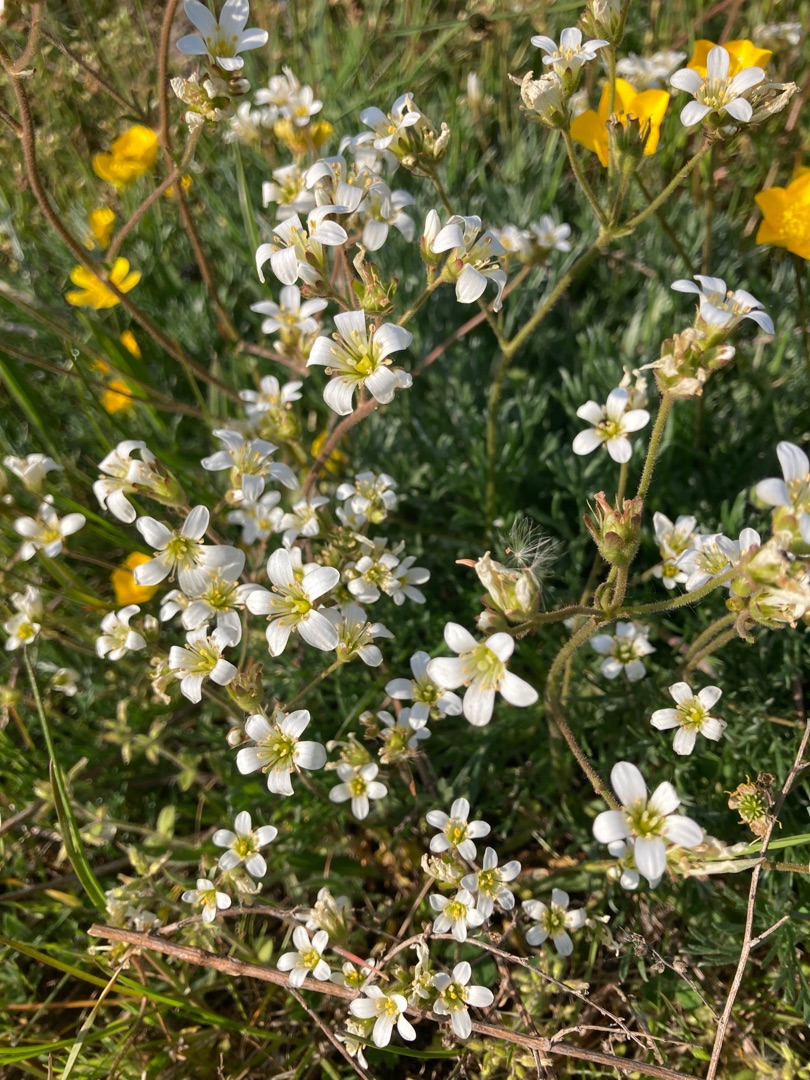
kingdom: Plantae
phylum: Tracheophyta
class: Magnoliopsida
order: Saxifragales
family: Saxifragaceae
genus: Saxifraga
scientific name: Saxifraga granulata
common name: Kornet stenbræk
